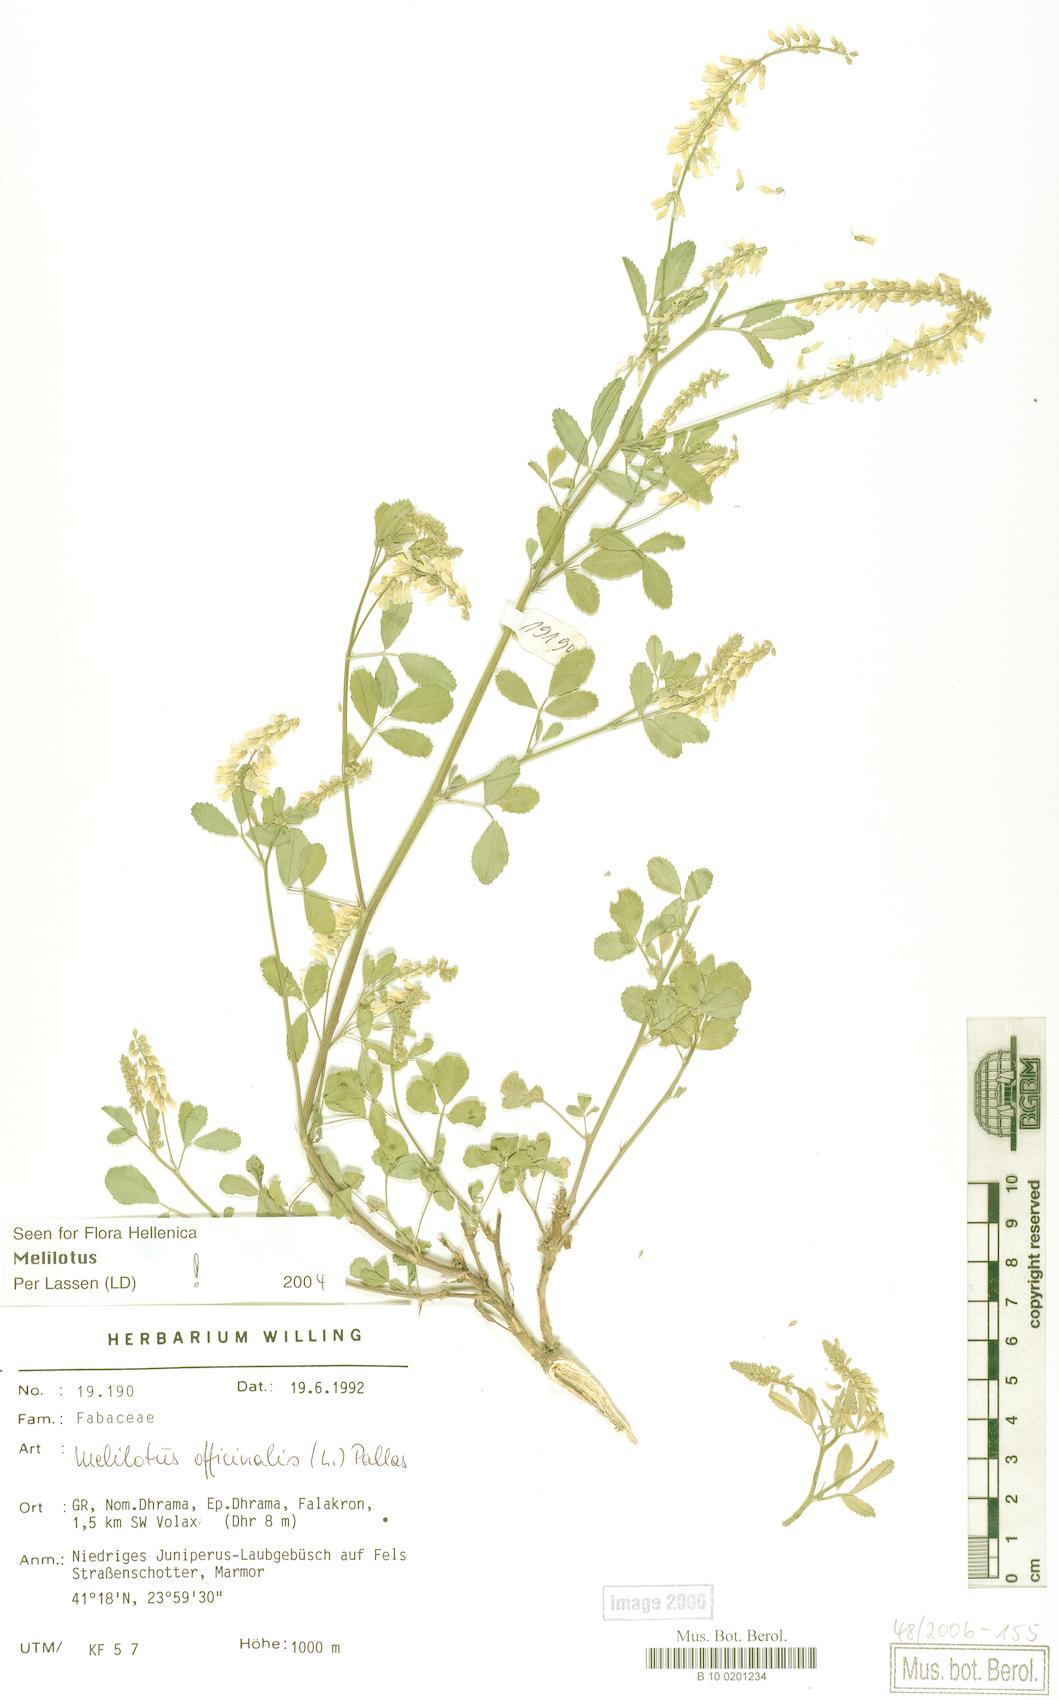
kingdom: Plantae
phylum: Tracheophyta
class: Magnoliopsida
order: Fabales
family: Fabaceae
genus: Melilotus
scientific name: Melilotus officinalis
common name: Sweetclover
